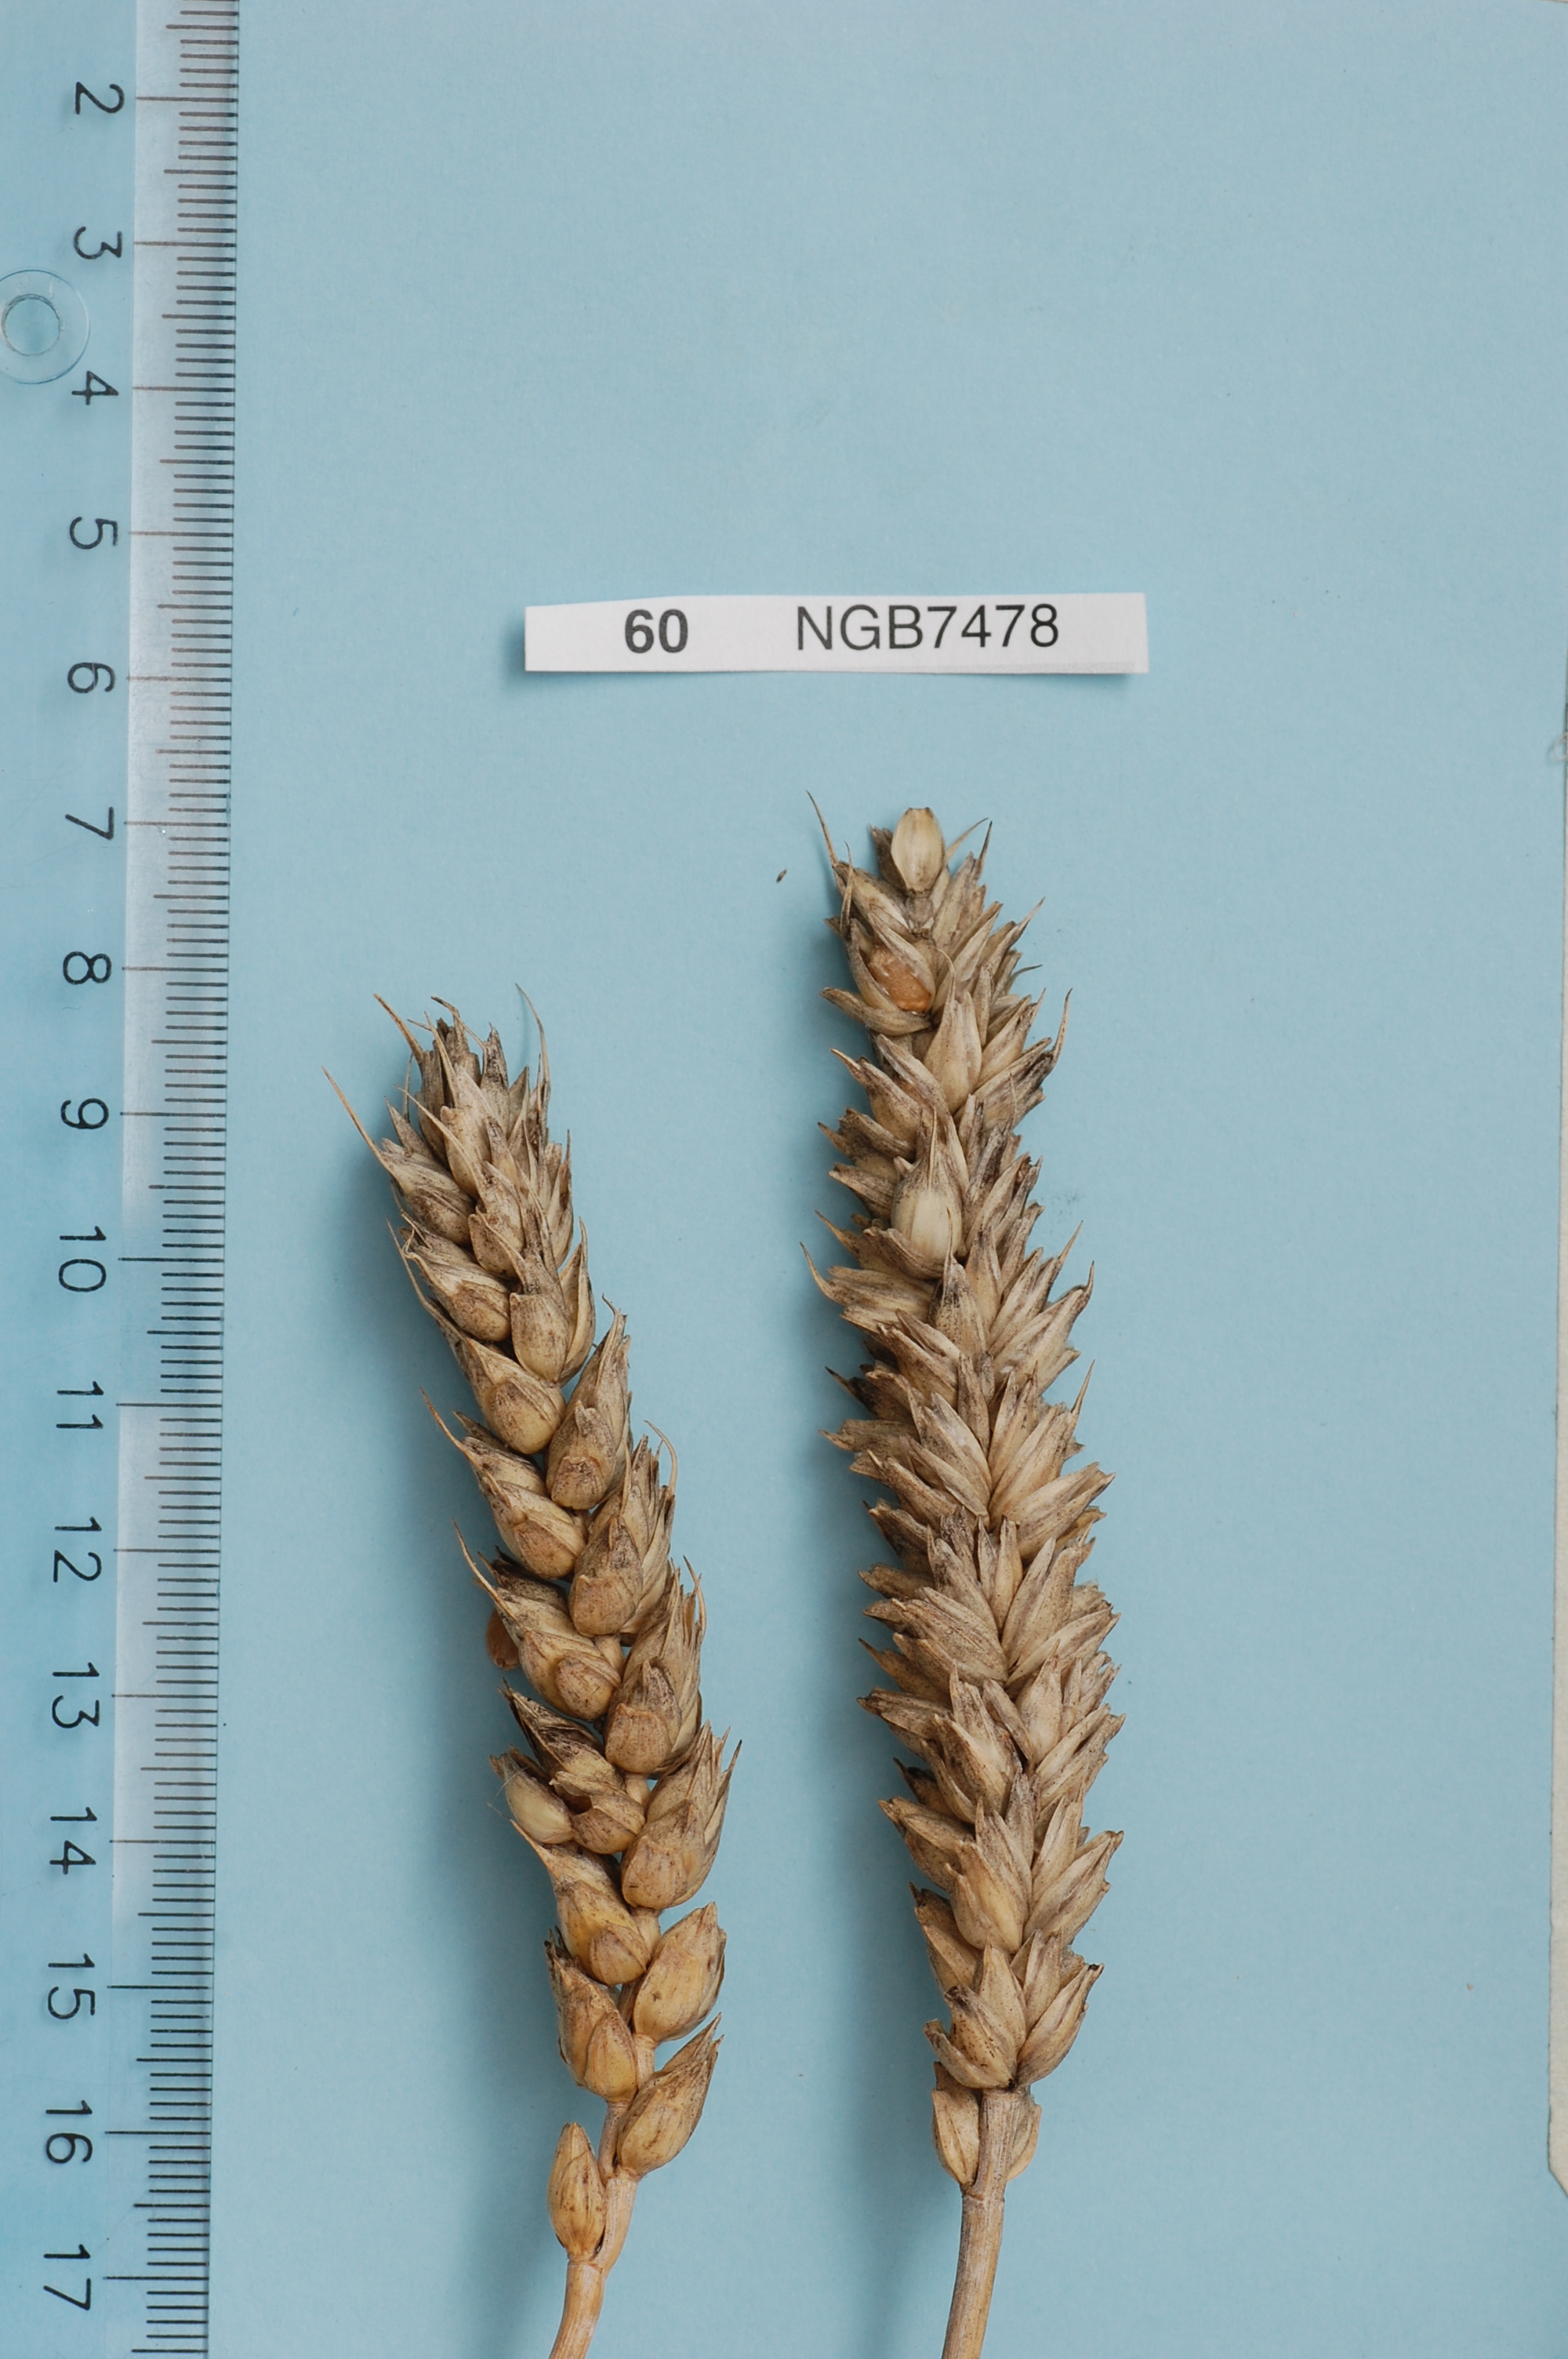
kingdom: Plantae
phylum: Tracheophyta
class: Liliopsida
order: Poales
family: Poaceae
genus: Triticum
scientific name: Triticum aestivum
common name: Common wheat
